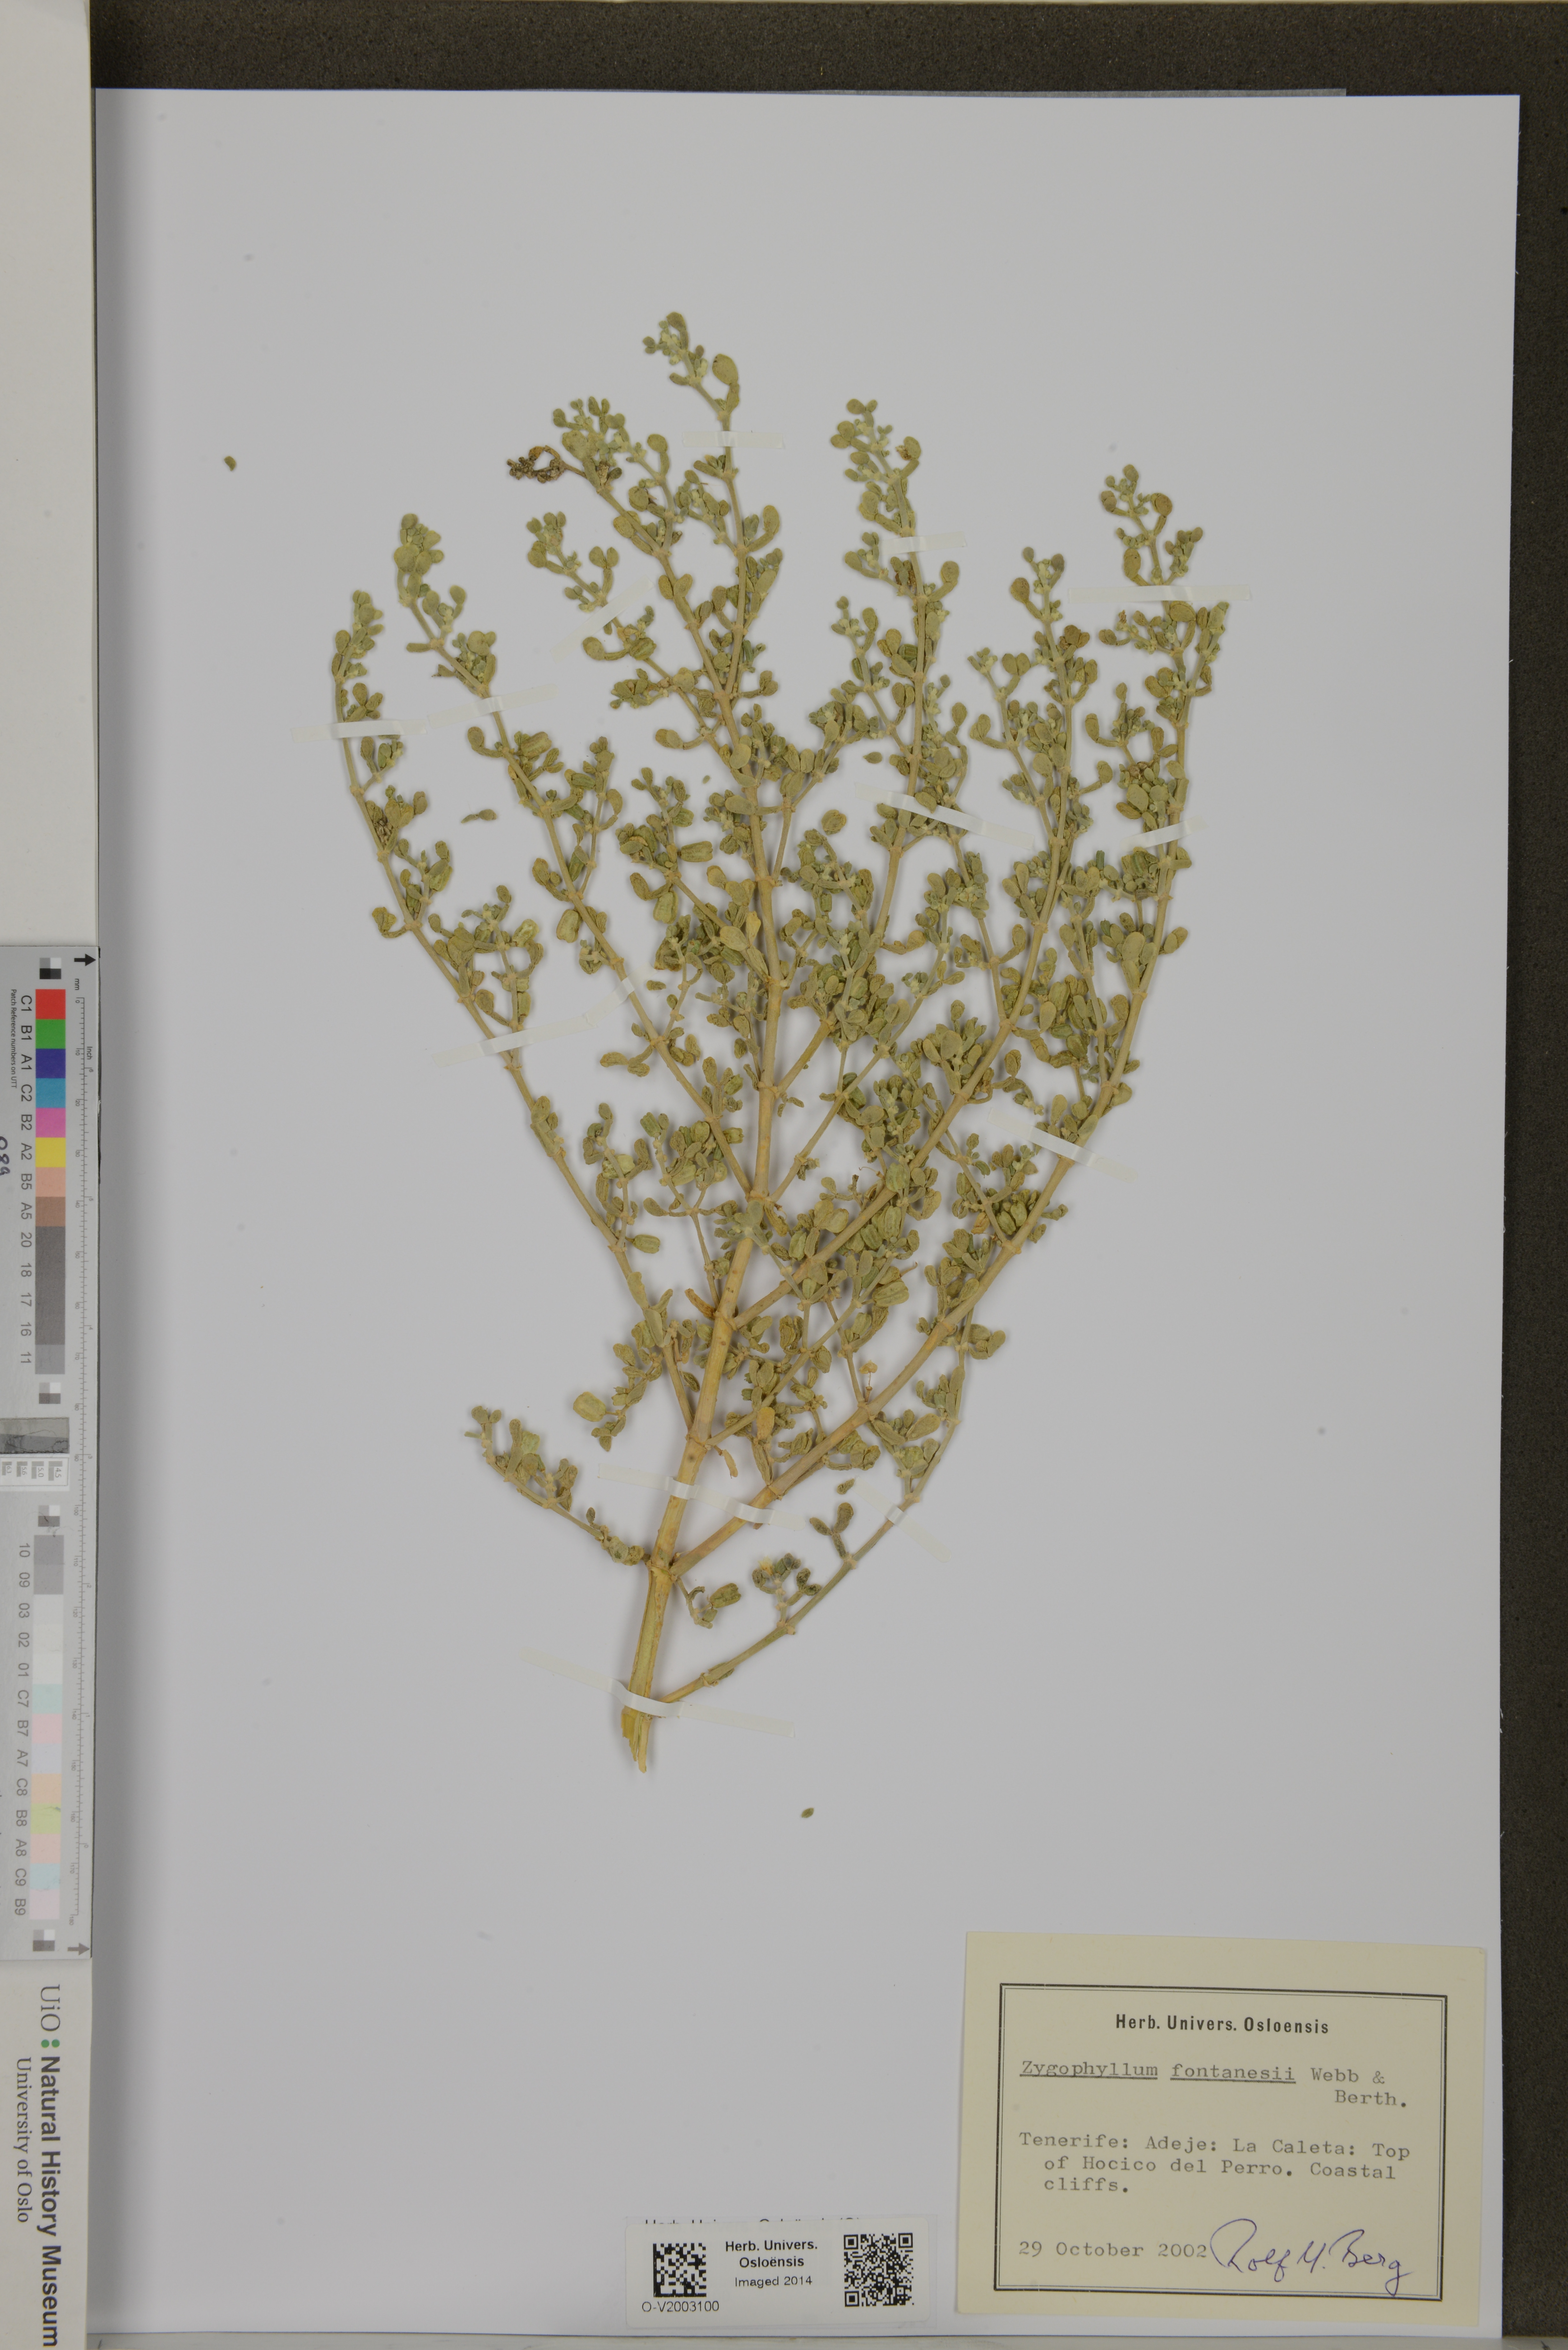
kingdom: Plantae
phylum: Tracheophyta
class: Magnoliopsida
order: Zygophyllales
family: Zygophyllaceae
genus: Tetraena
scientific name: Tetraena fontanesii
